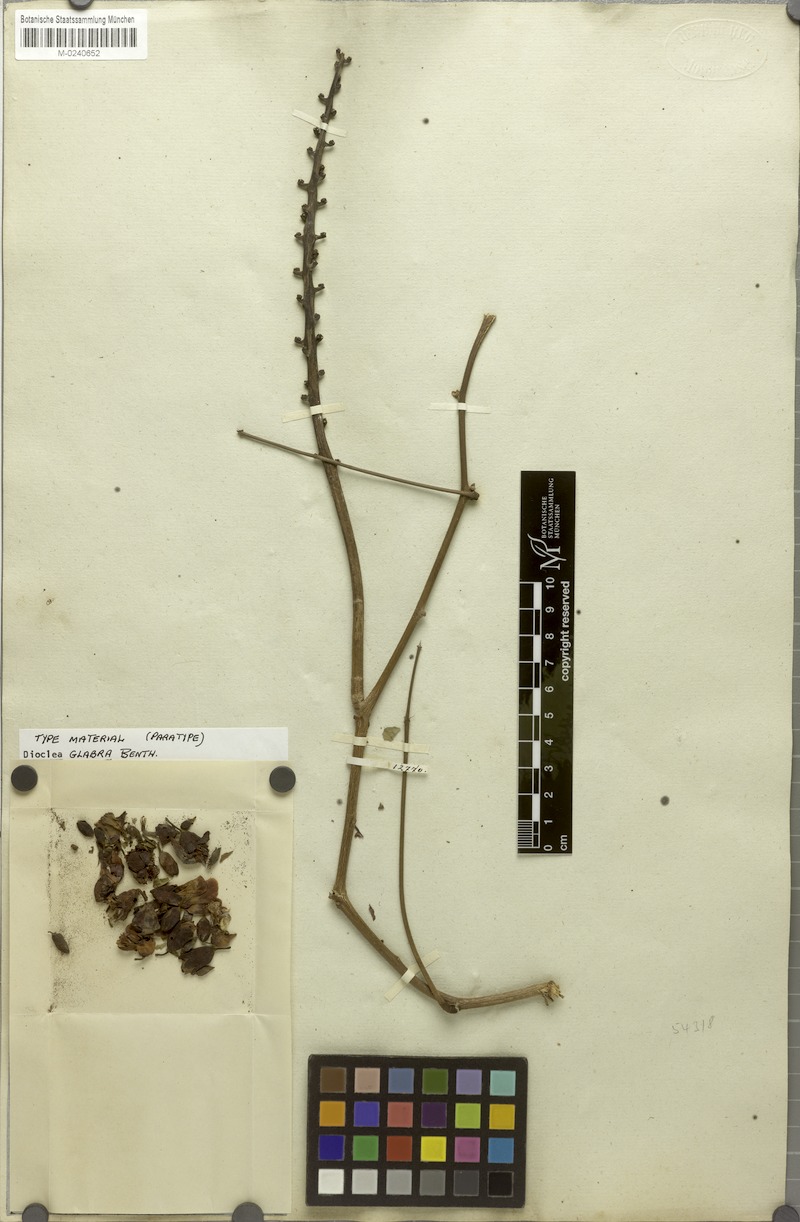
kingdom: Plantae
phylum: Tracheophyta
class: Magnoliopsida
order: Fabales
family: Fabaceae
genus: Macropsychanthus
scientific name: Macropsychanthus glaber
